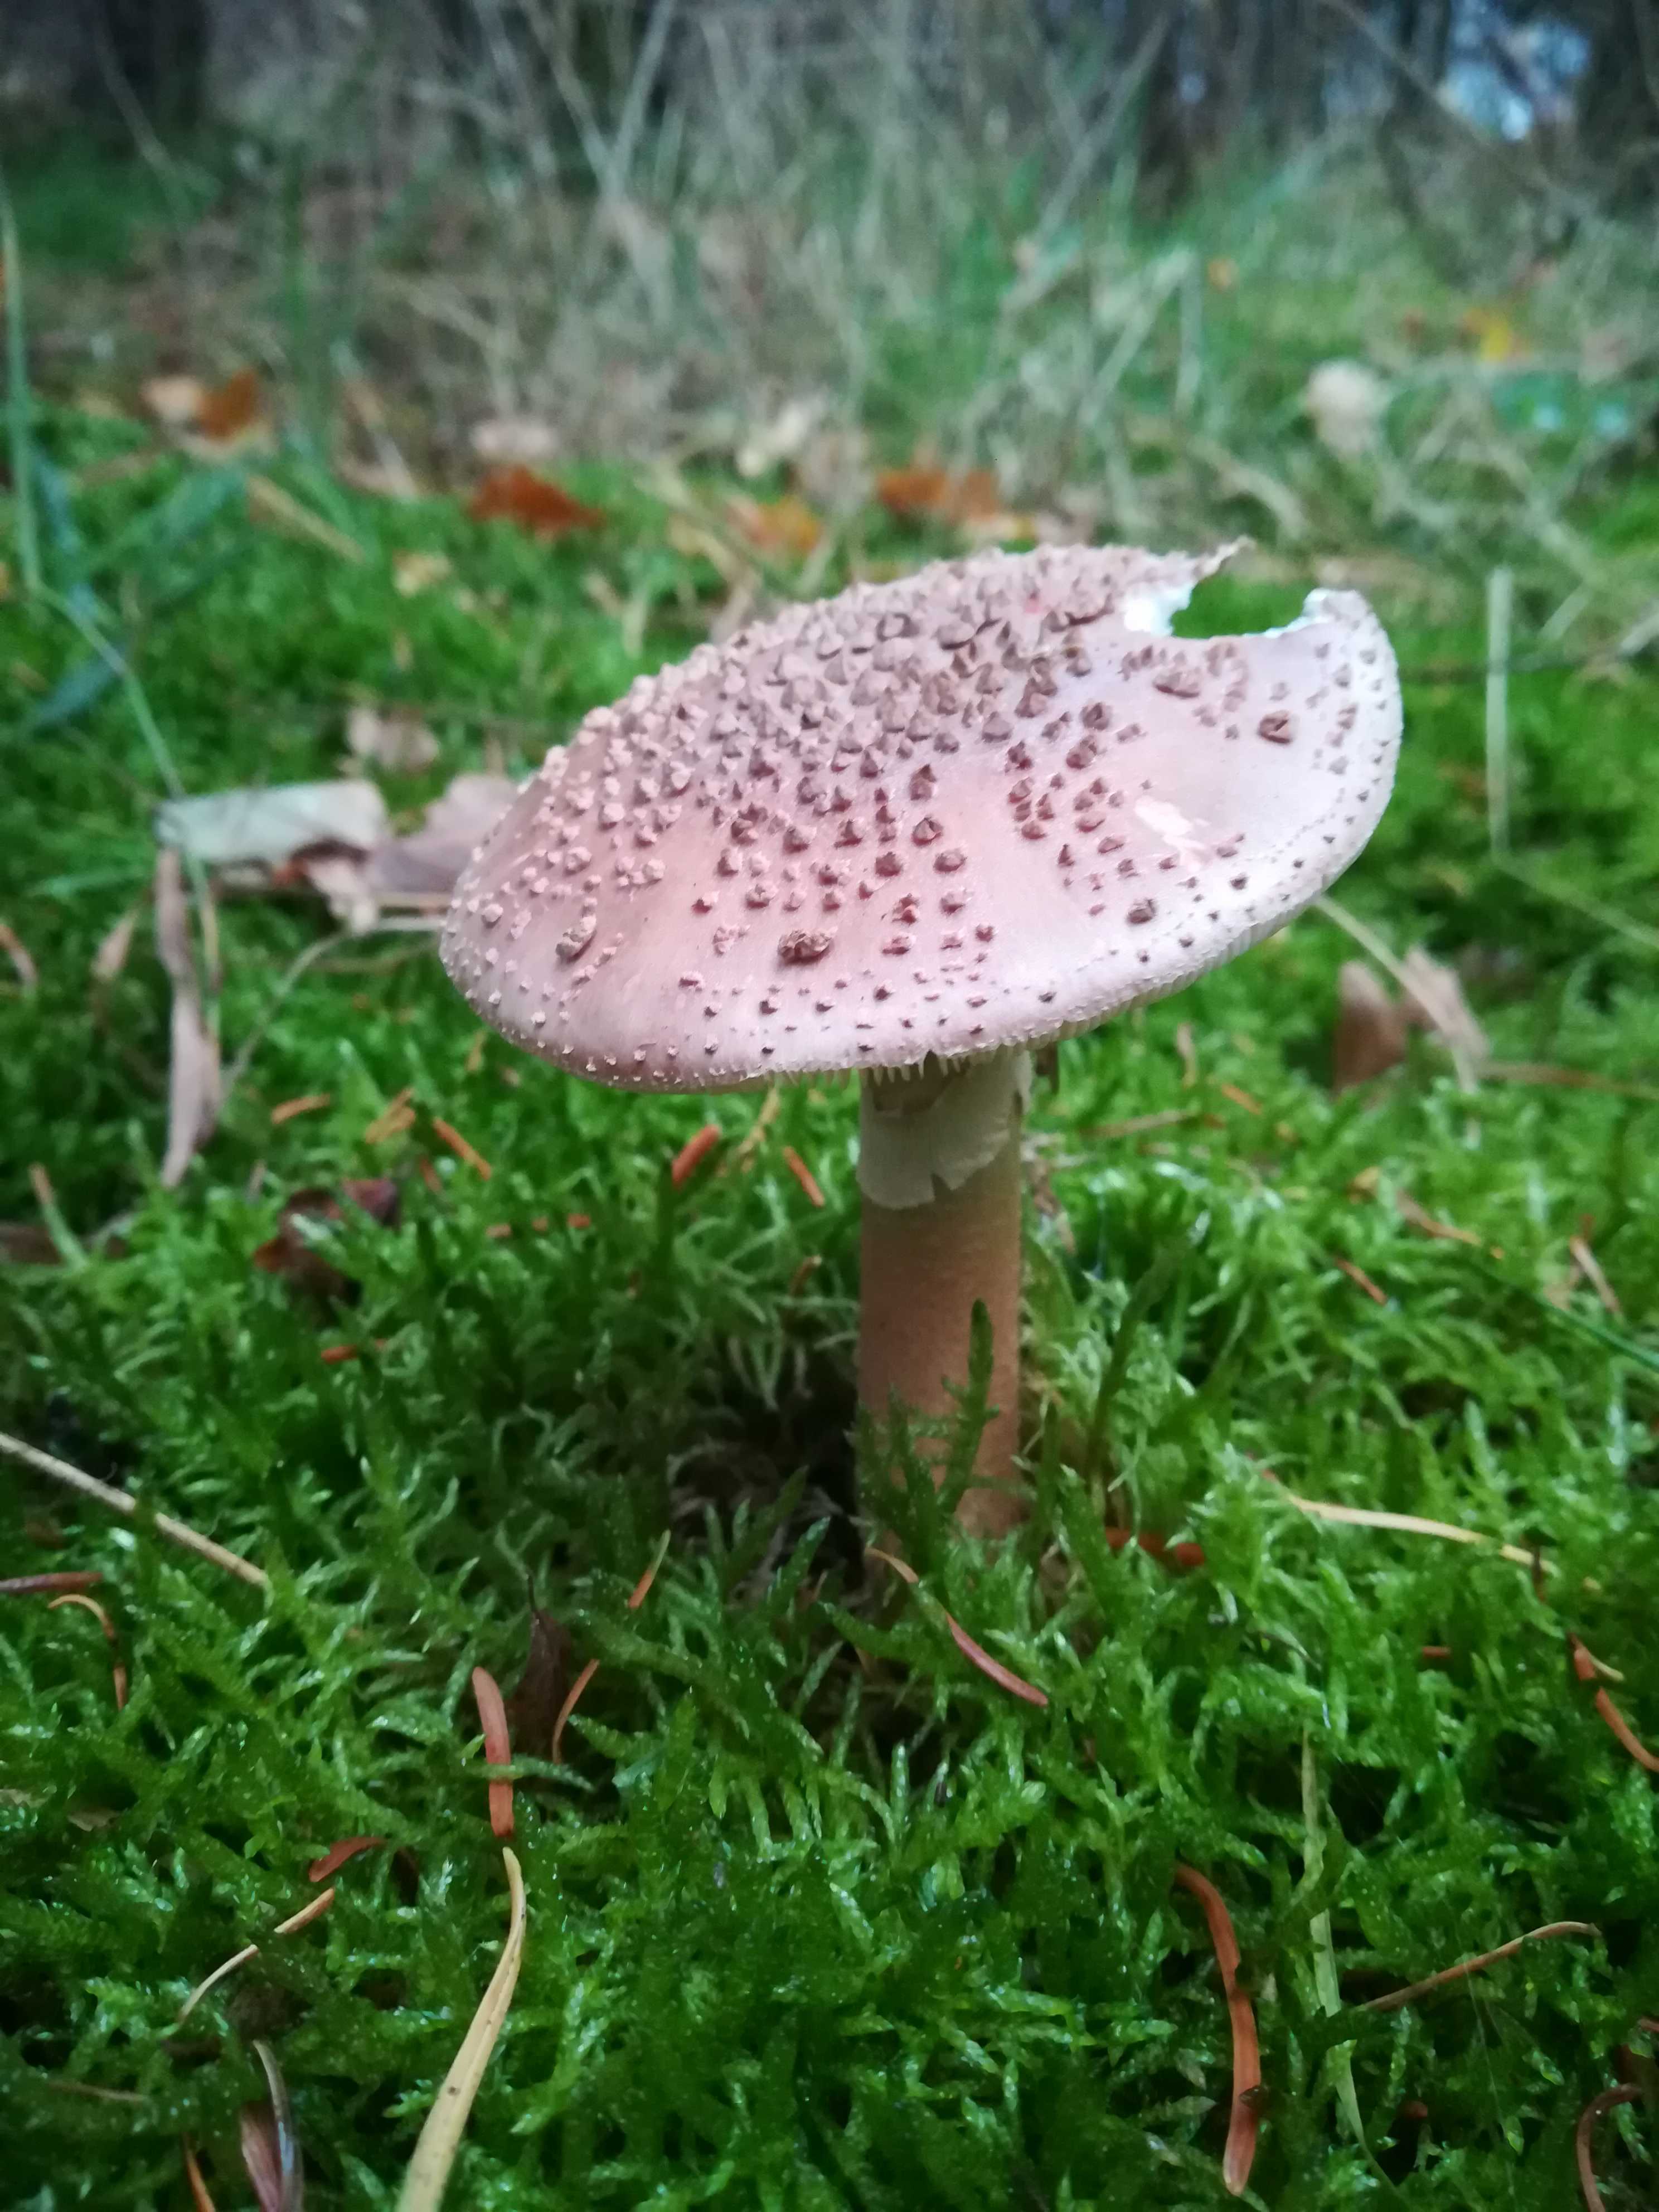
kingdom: Fungi
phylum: Basidiomycota
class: Agaricomycetes
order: Agaricales
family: Amanitaceae
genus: Amanita
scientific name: Amanita rubescens
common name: rødmende fluesvamp
